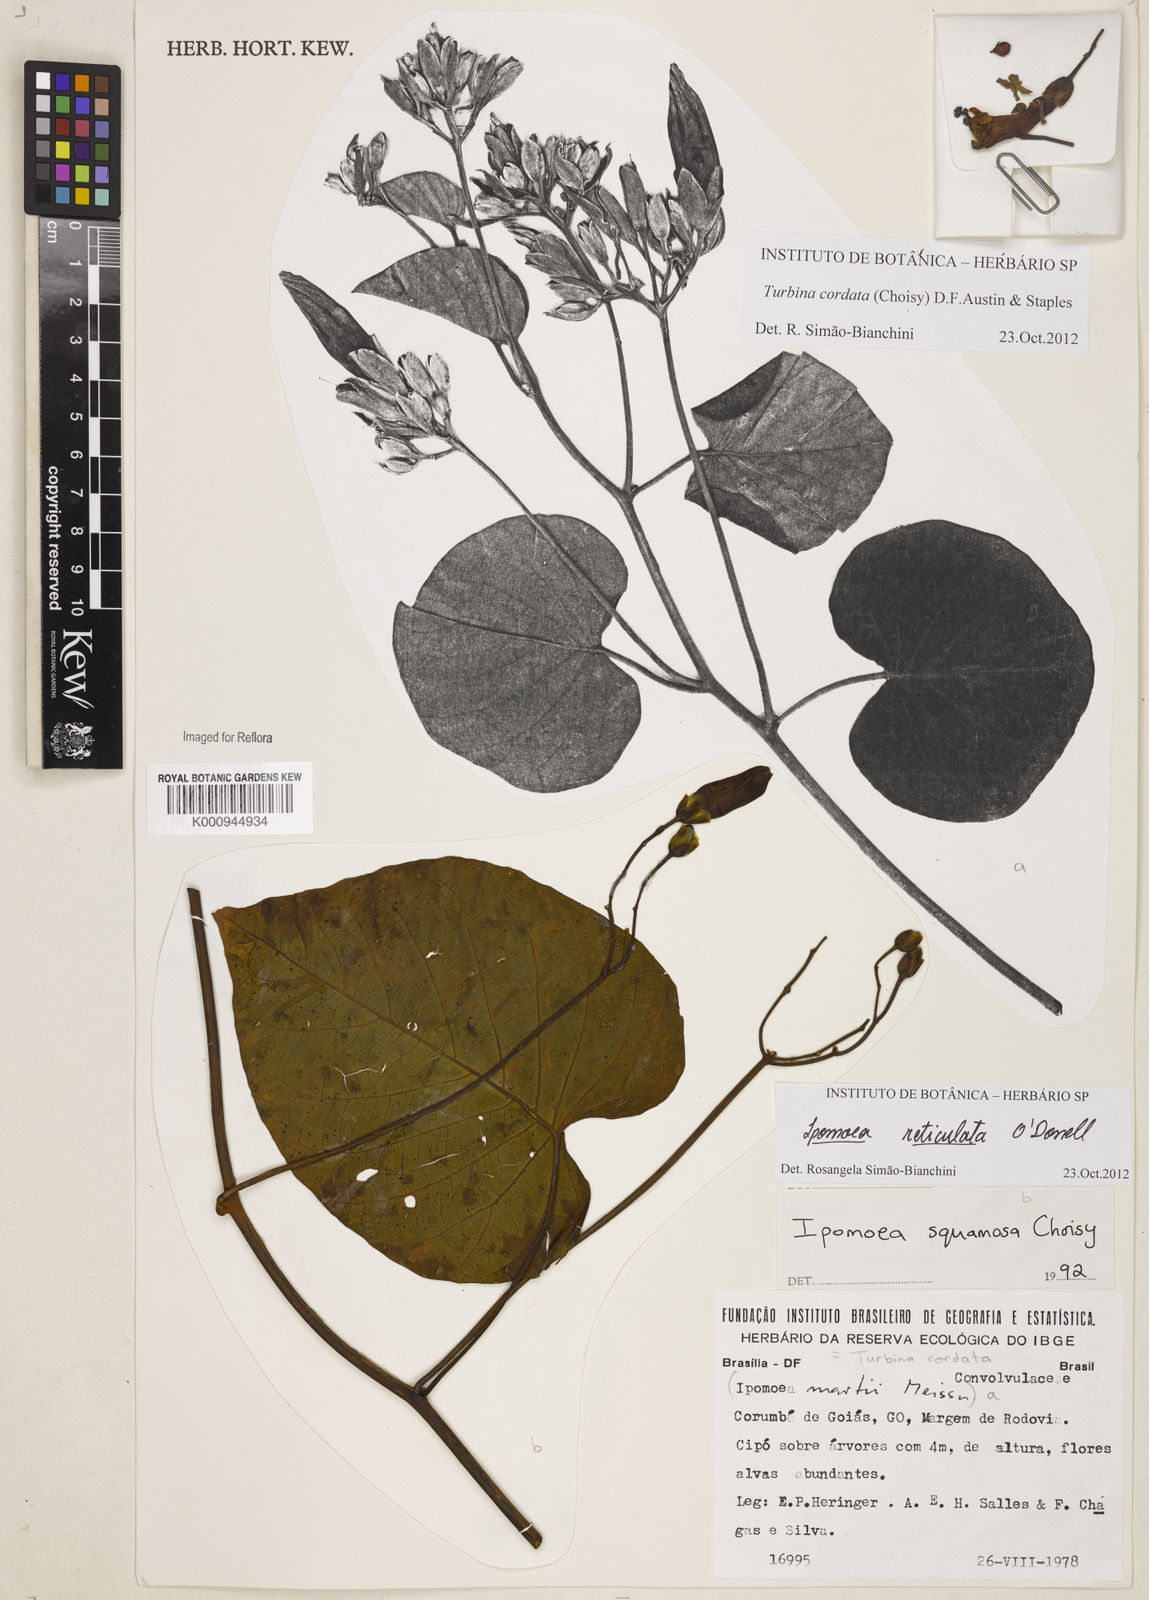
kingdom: Plantae
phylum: Tracheophyta
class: Magnoliopsida
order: Solanales
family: Convolvulaceae
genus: Ipomoea
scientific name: Ipomoea sericosepala
